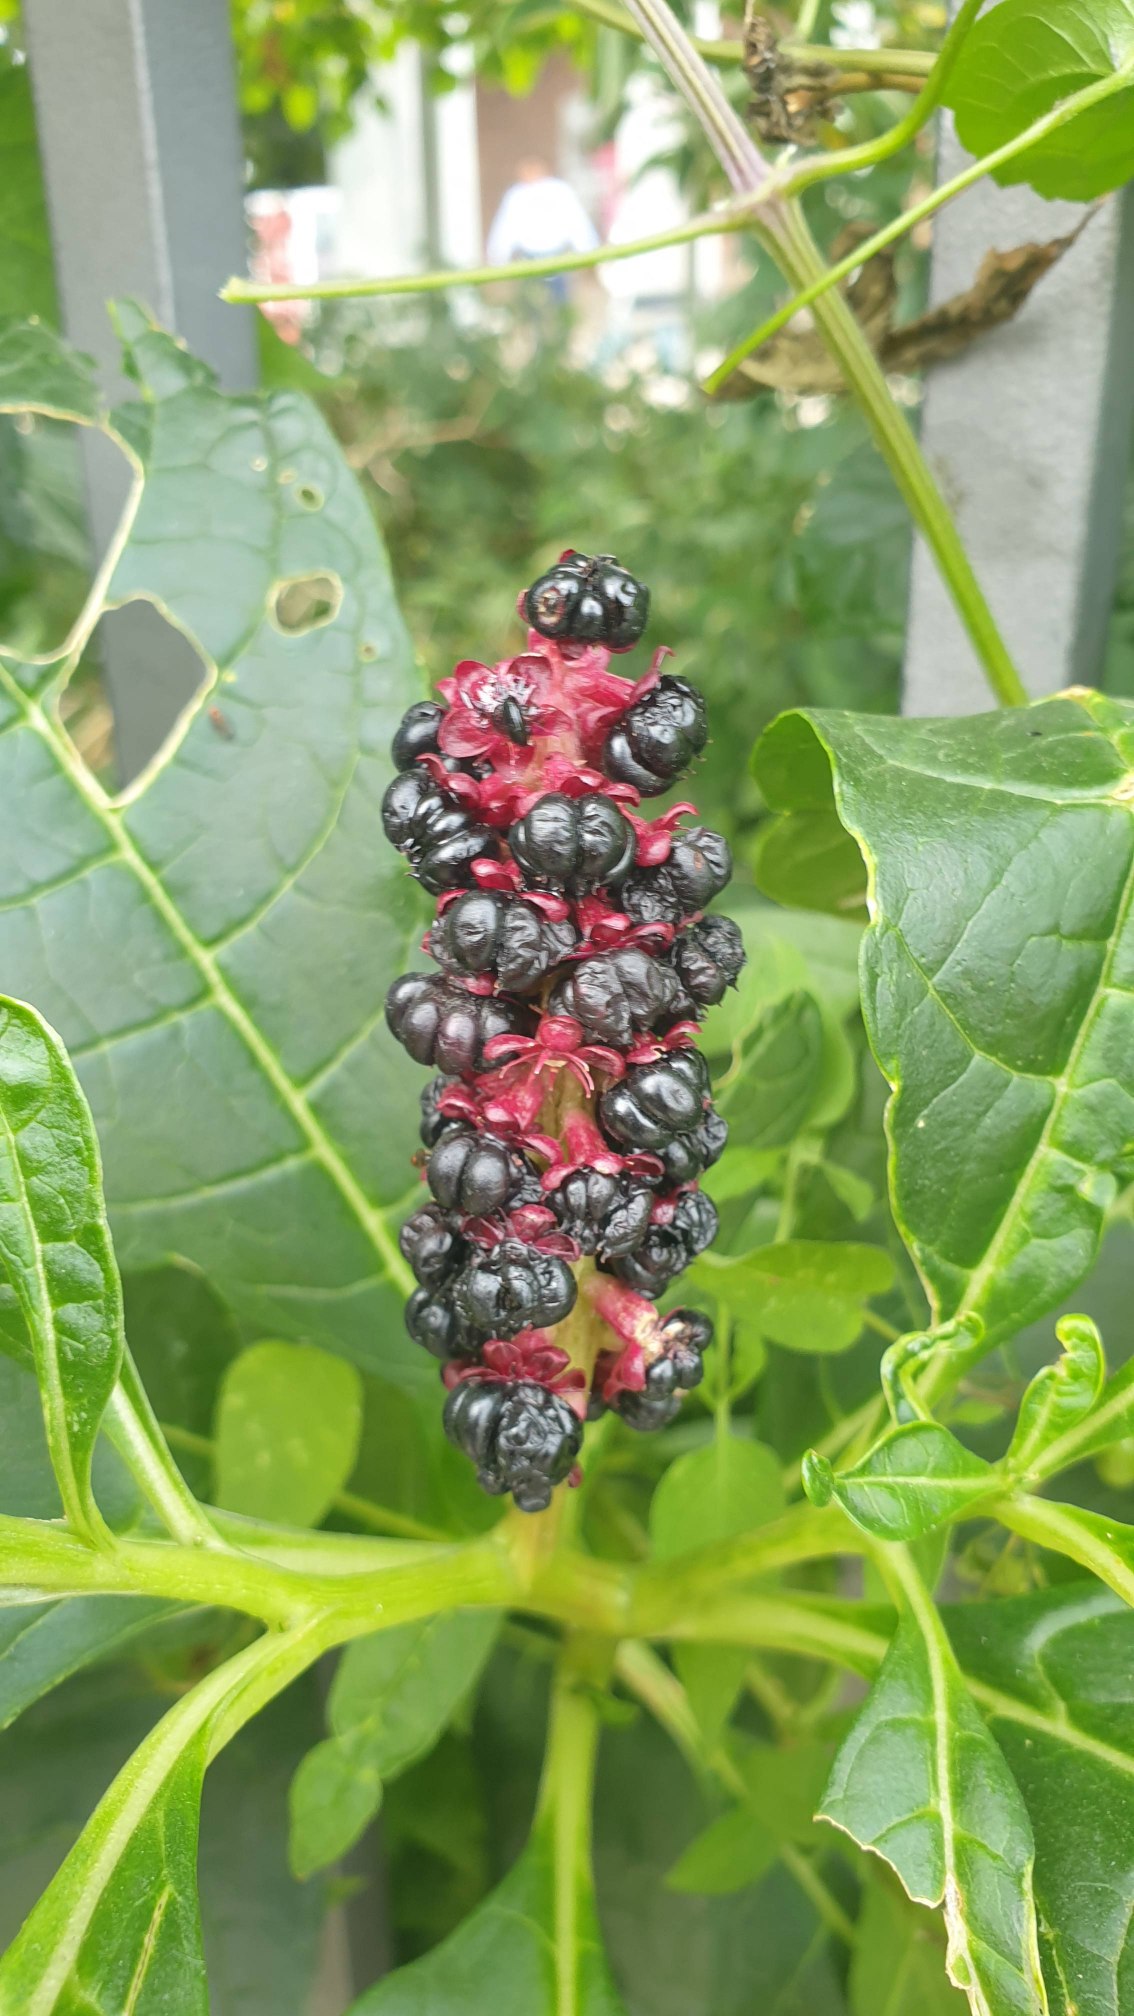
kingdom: Plantae
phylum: Tracheophyta
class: Magnoliopsida
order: Caryophyllales
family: Phytolaccaceae
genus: Phytolacca
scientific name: Phytolacca acinosa
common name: Asiatisk kermesbær
